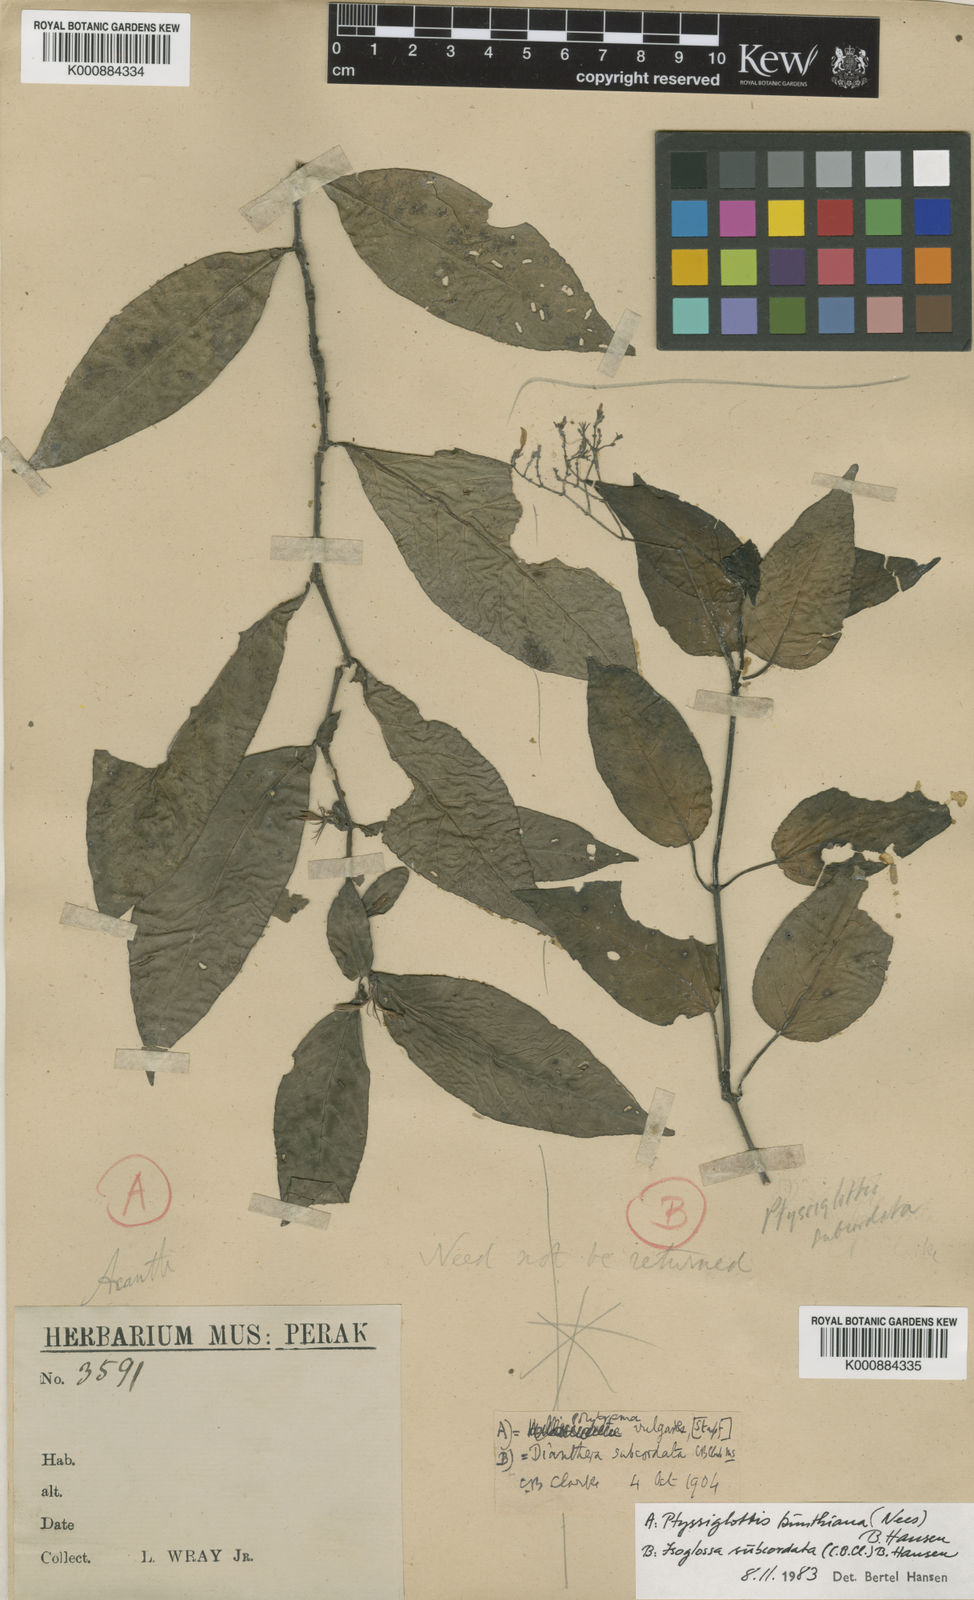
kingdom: Plantae
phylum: Tracheophyta
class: Magnoliopsida
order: Lamiales
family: Acanthaceae
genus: Ptyssiglottis
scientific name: Ptyssiglottis kunthiana
